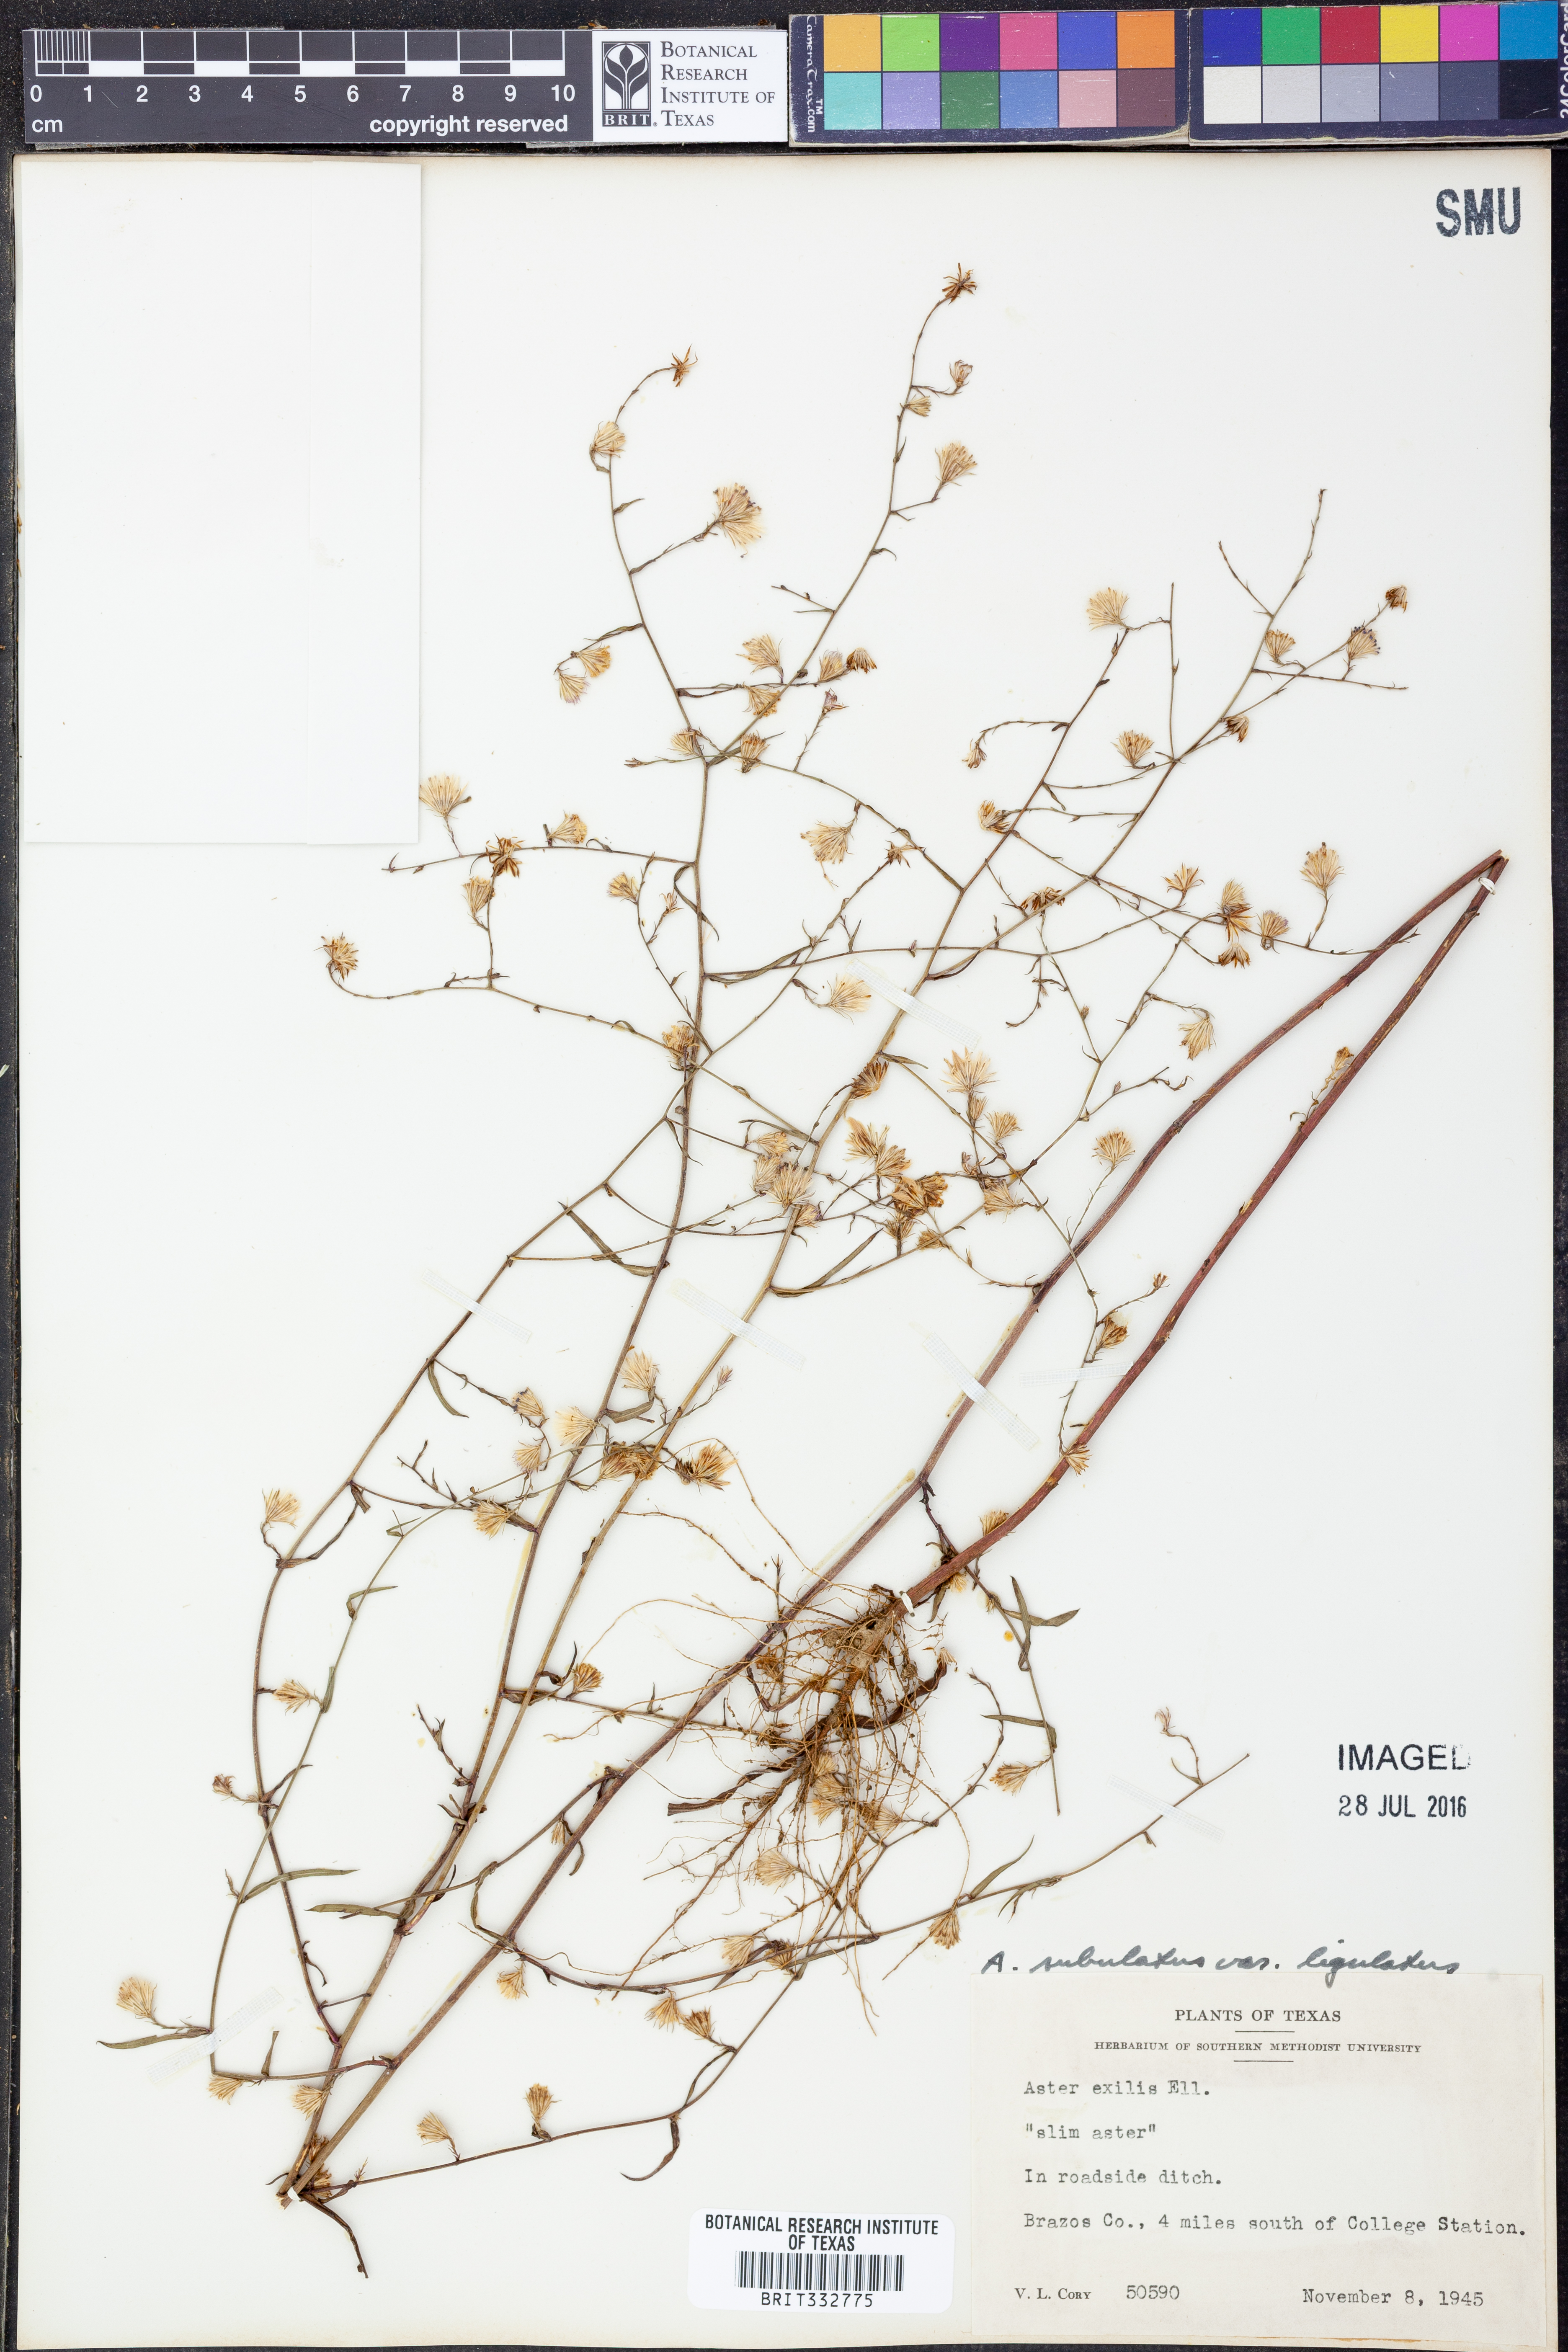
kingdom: Plantae
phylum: Tracheophyta
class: Magnoliopsida
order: Asterales
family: Asteraceae
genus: Symphyotrichum
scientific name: Symphyotrichum divaricatum
